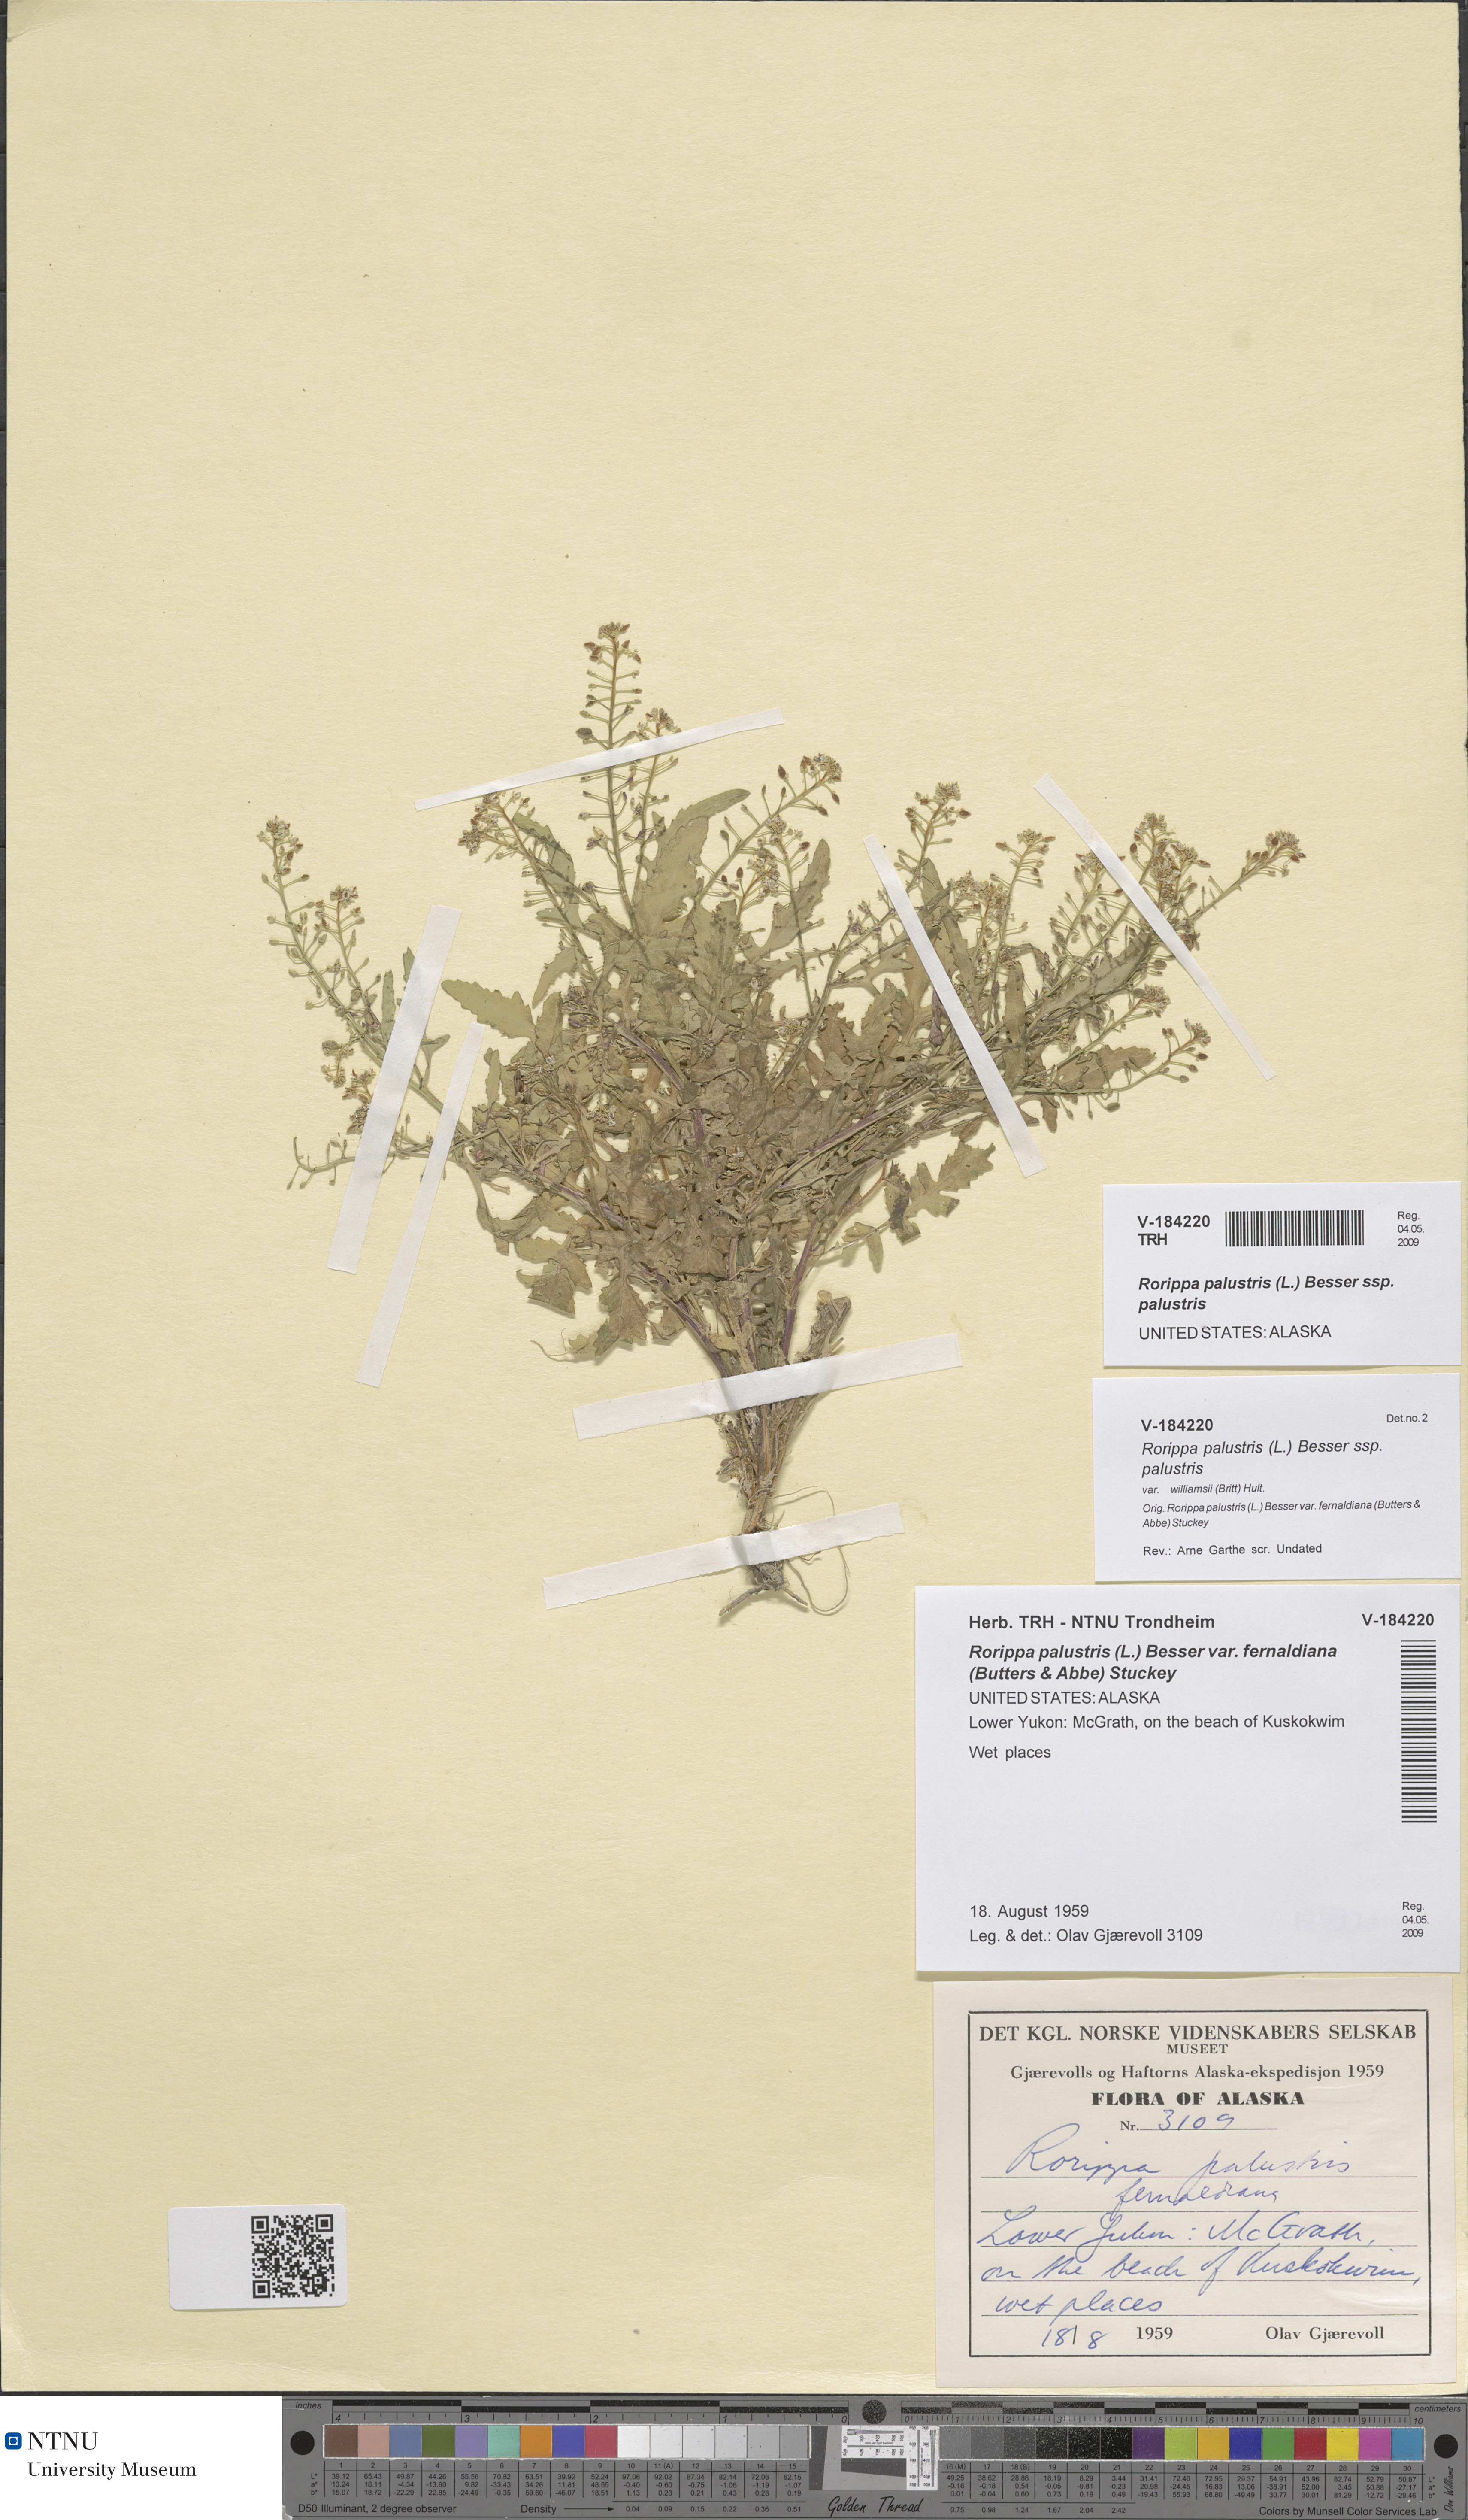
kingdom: Plantae
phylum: Tracheophyta
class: Magnoliopsida
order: Brassicales
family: Brassicaceae
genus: Rorippa
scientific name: Rorippa palustris
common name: Marsh yellow-cress
